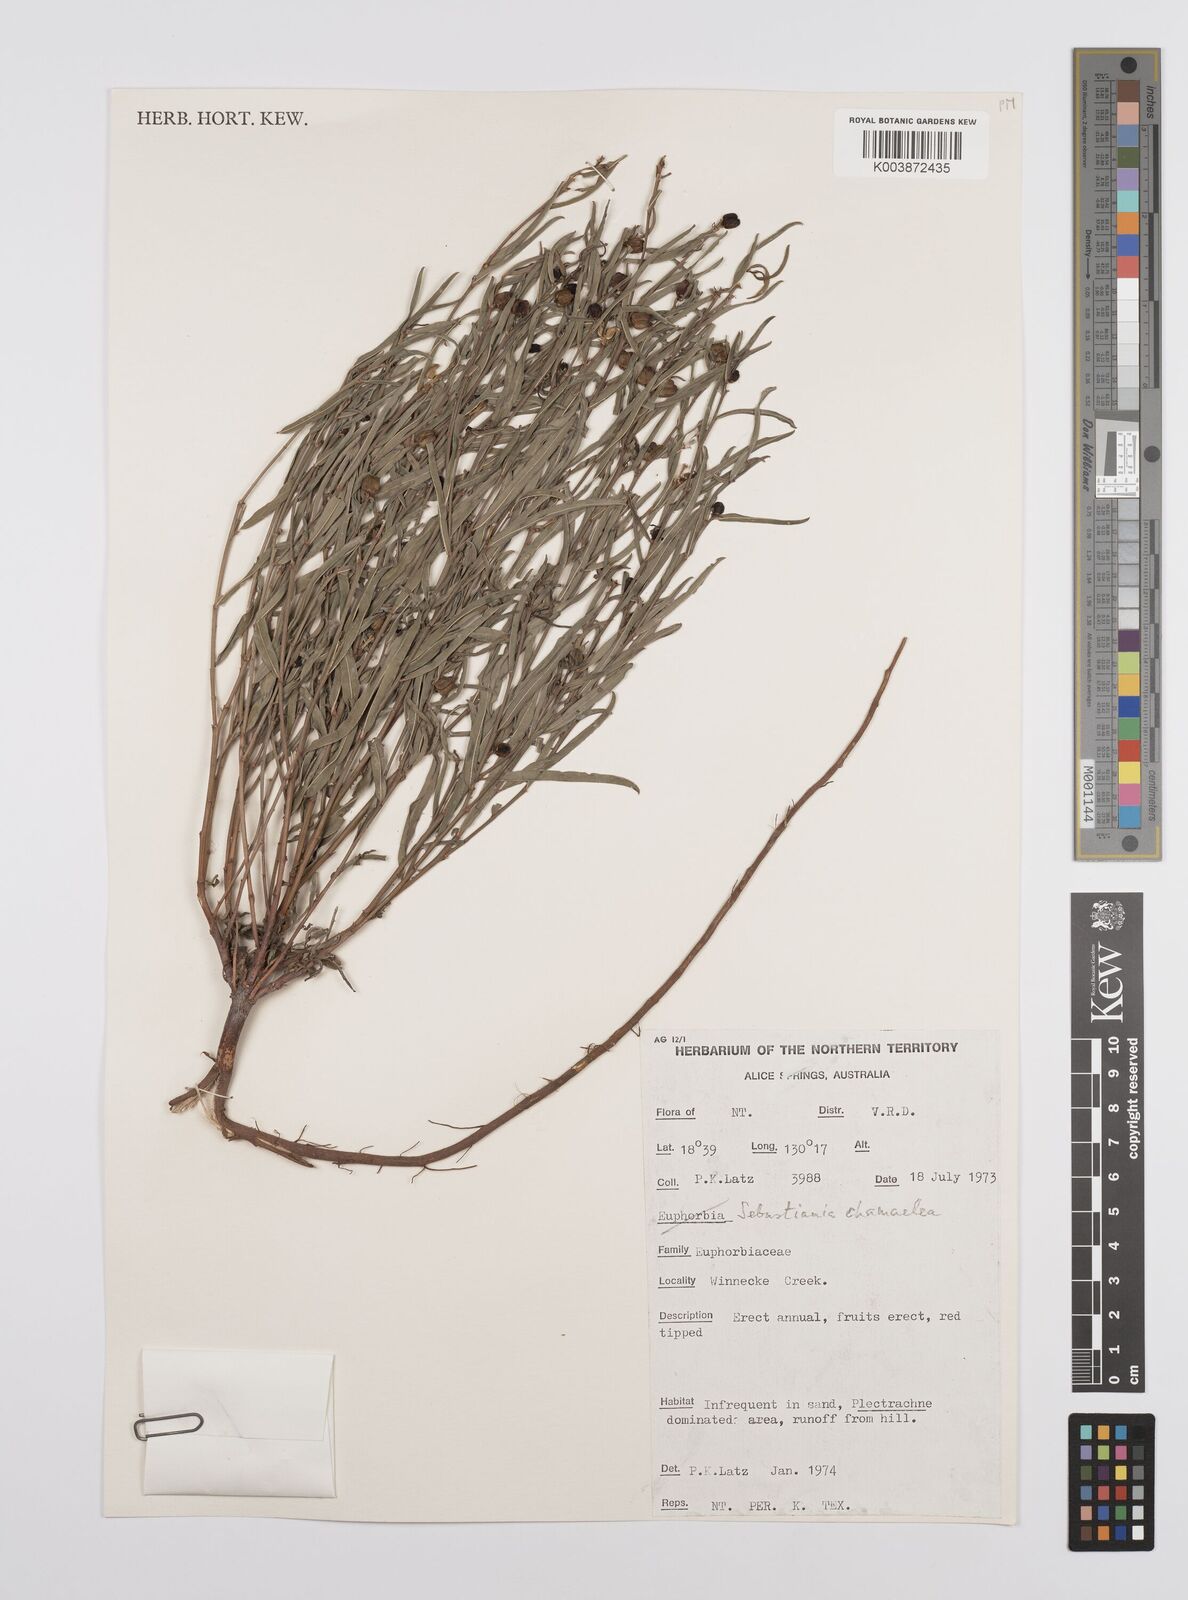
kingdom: Plantae
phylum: Tracheophyta
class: Magnoliopsida
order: Malpighiales
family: Euphorbiaceae
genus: Microstachys
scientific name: Microstachys chamaelea
